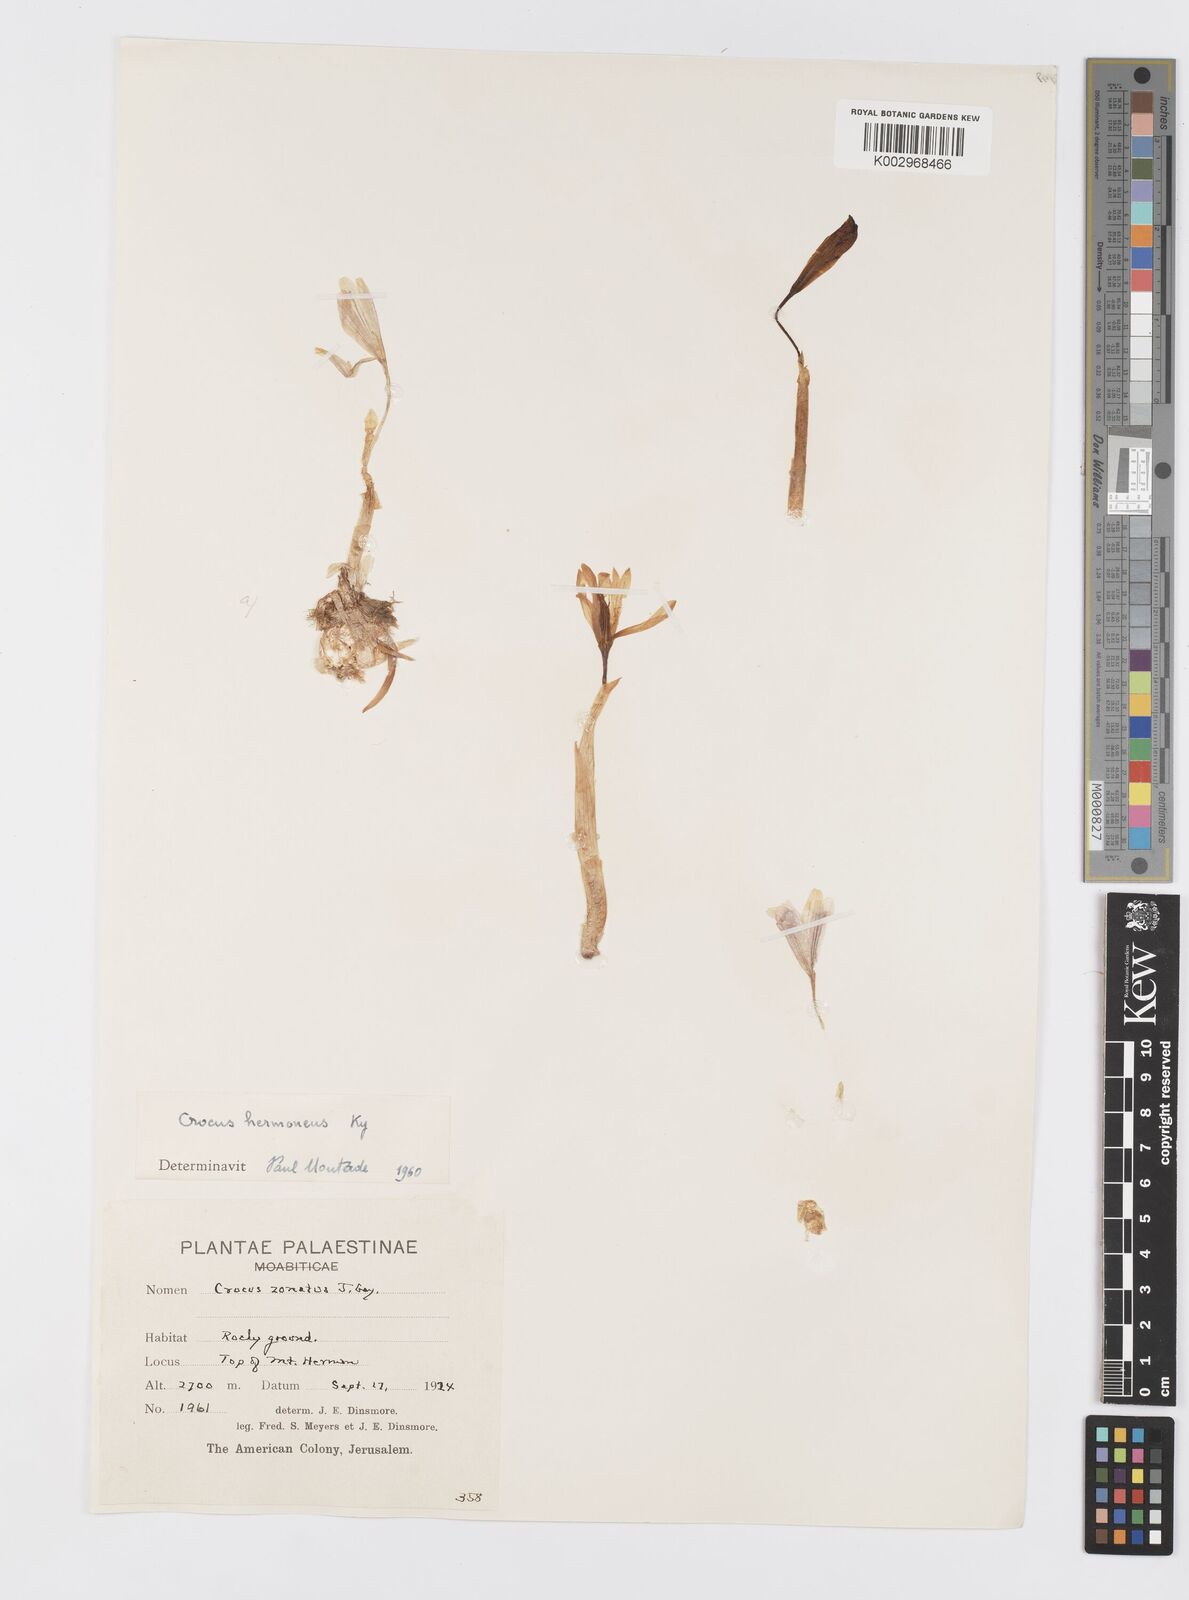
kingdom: Plantae
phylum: Tracheophyta
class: Liliopsida
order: Asparagales
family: Iridaceae
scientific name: Iridaceae
